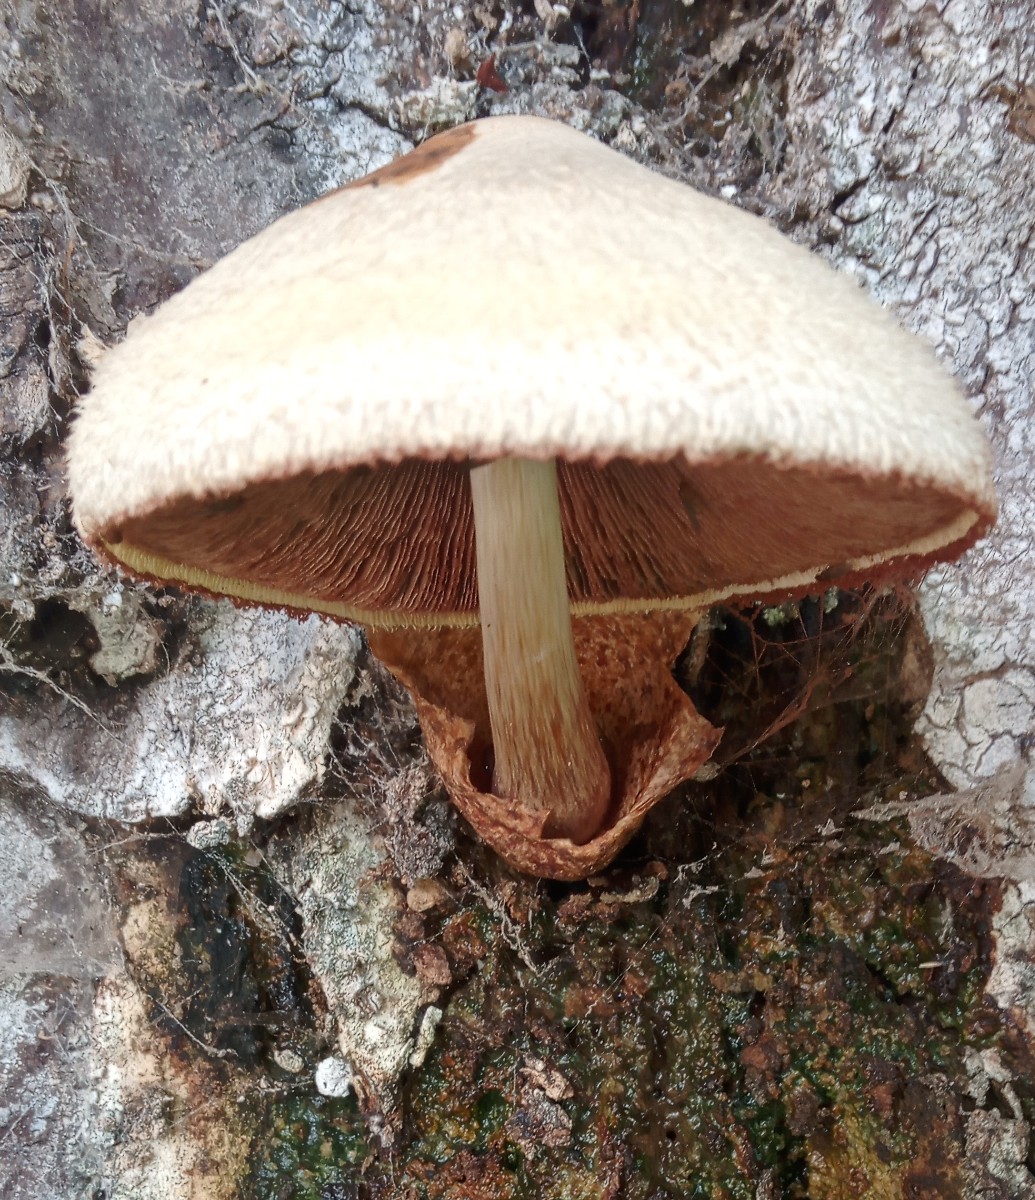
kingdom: Fungi
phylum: Basidiomycota
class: Agaricomycetes
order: Agaricales
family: Pluteaceae
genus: Volvariella
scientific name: Volvariella bombycina
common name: silkehåret posesvamp
